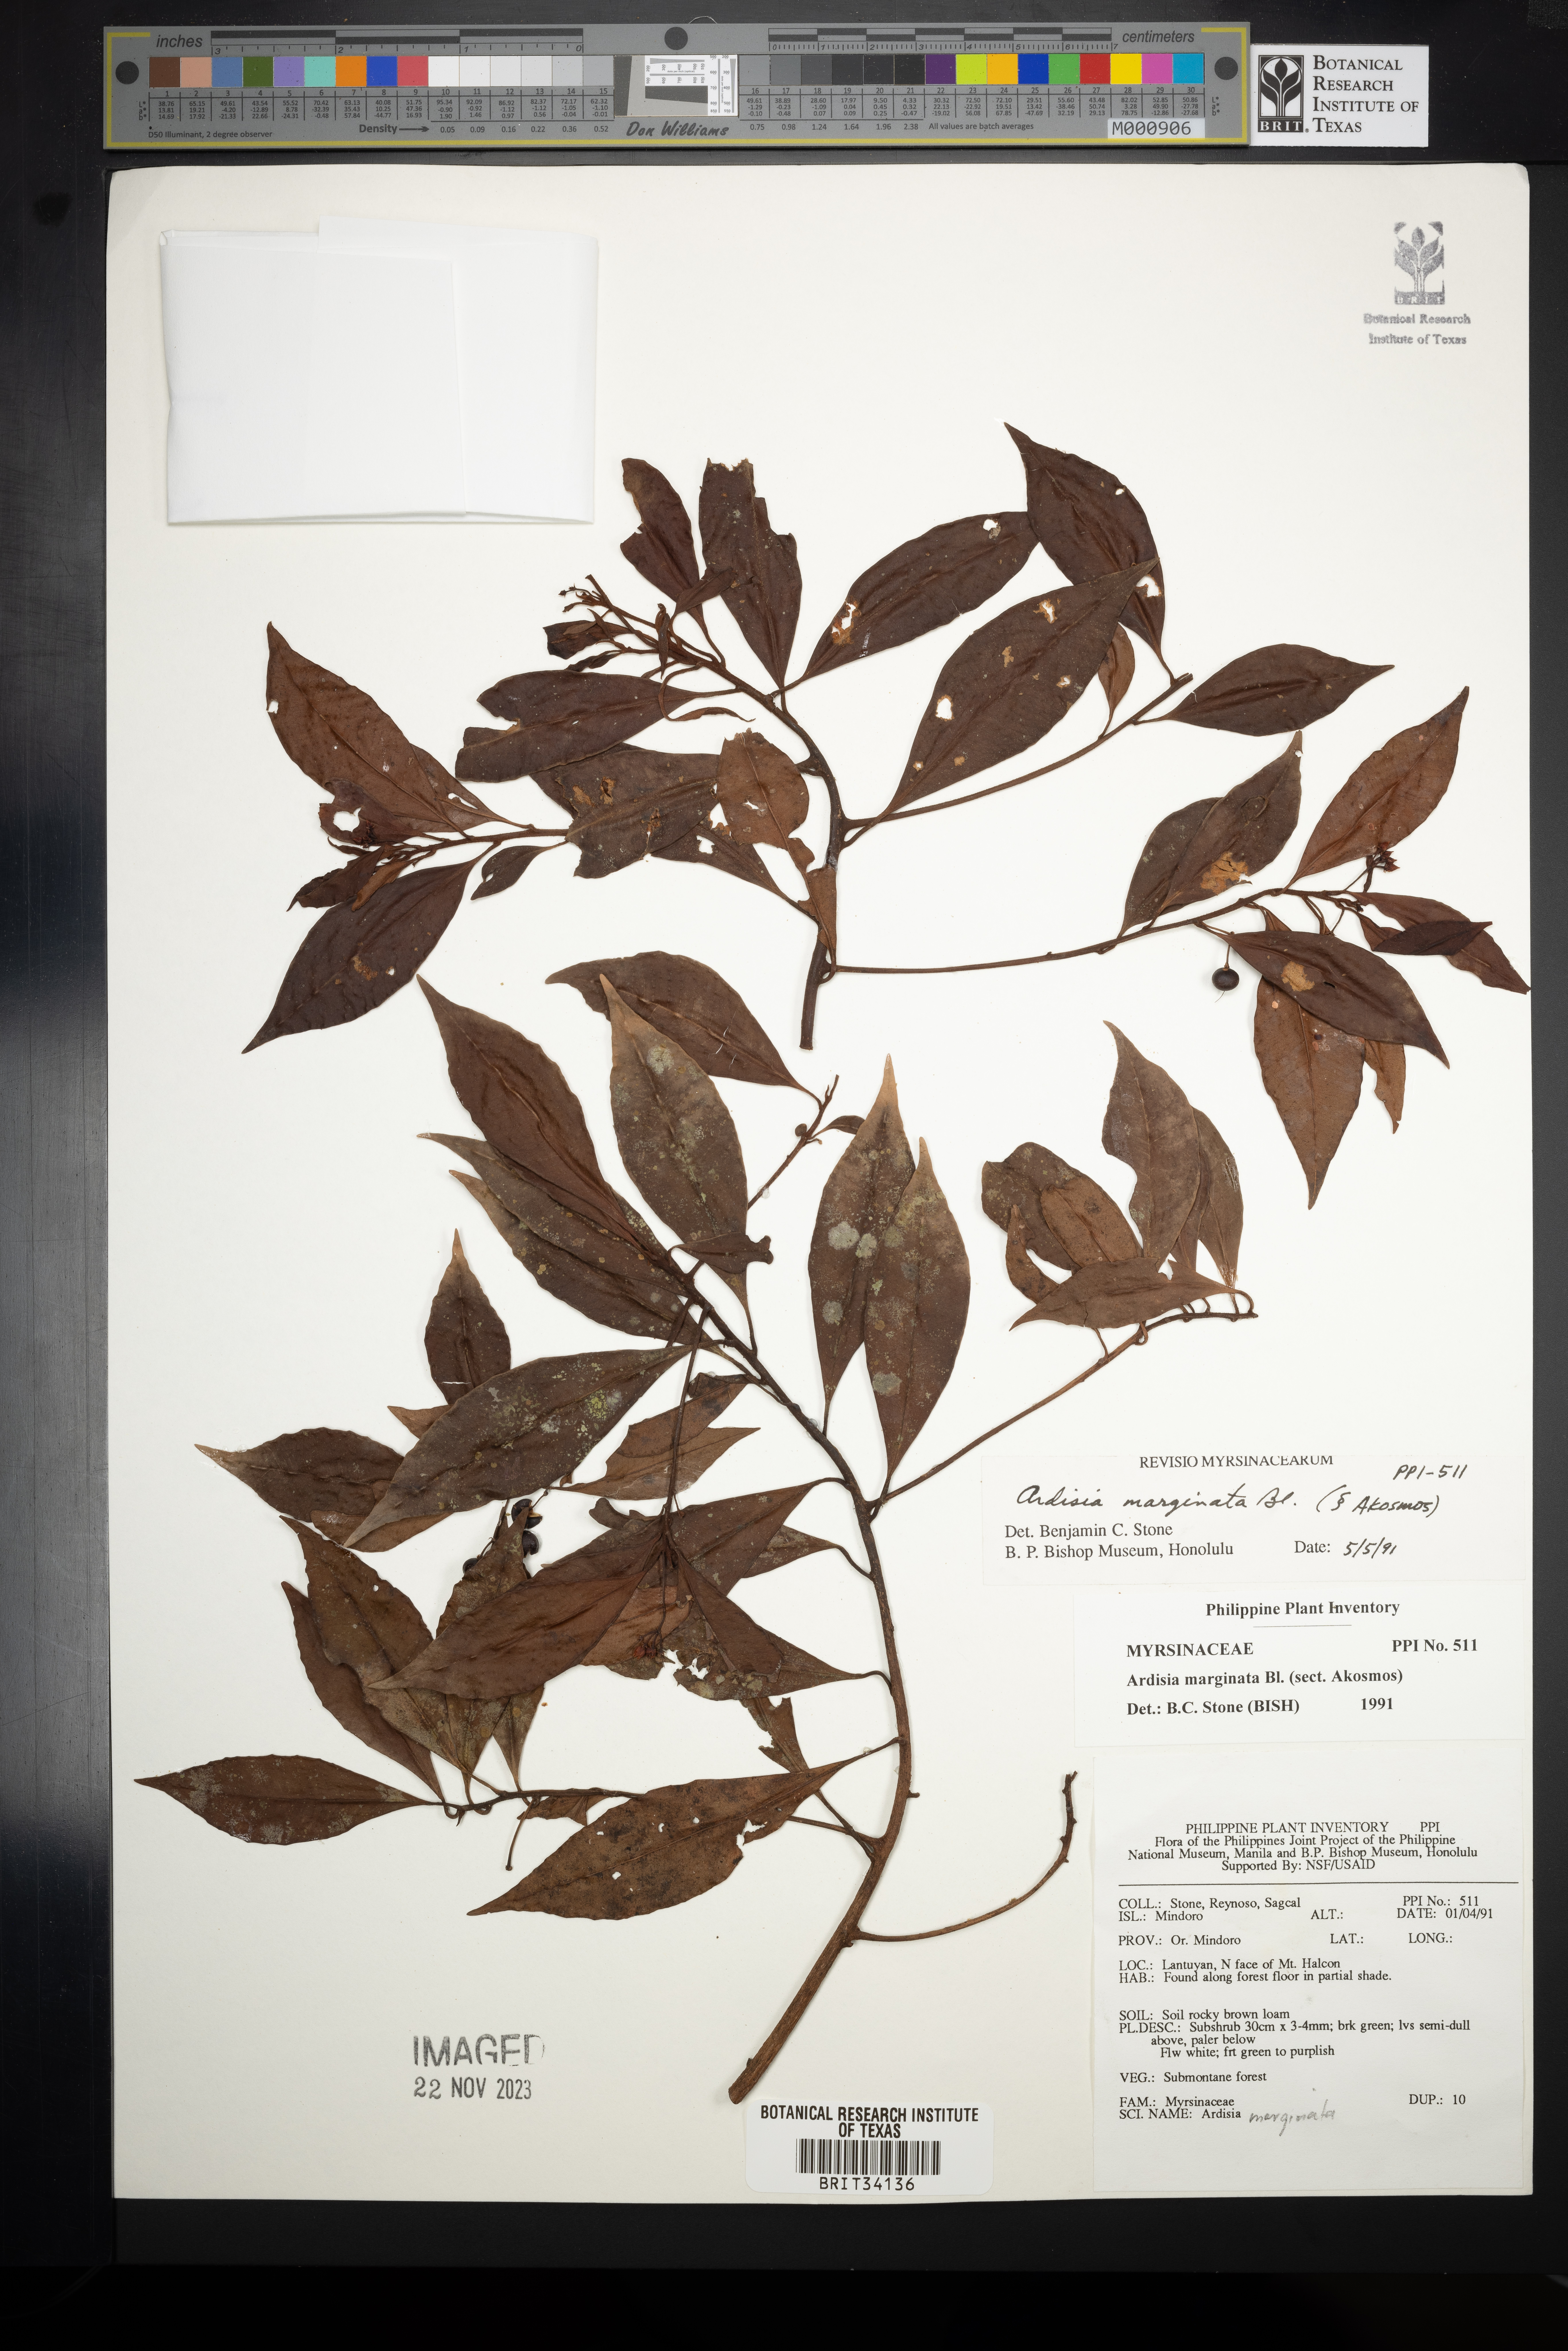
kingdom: Plantae
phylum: Tracheophyta
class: Magnoliopsida
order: Ericales
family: Primulaceae
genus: Ardisia
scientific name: Ardisia marginata
